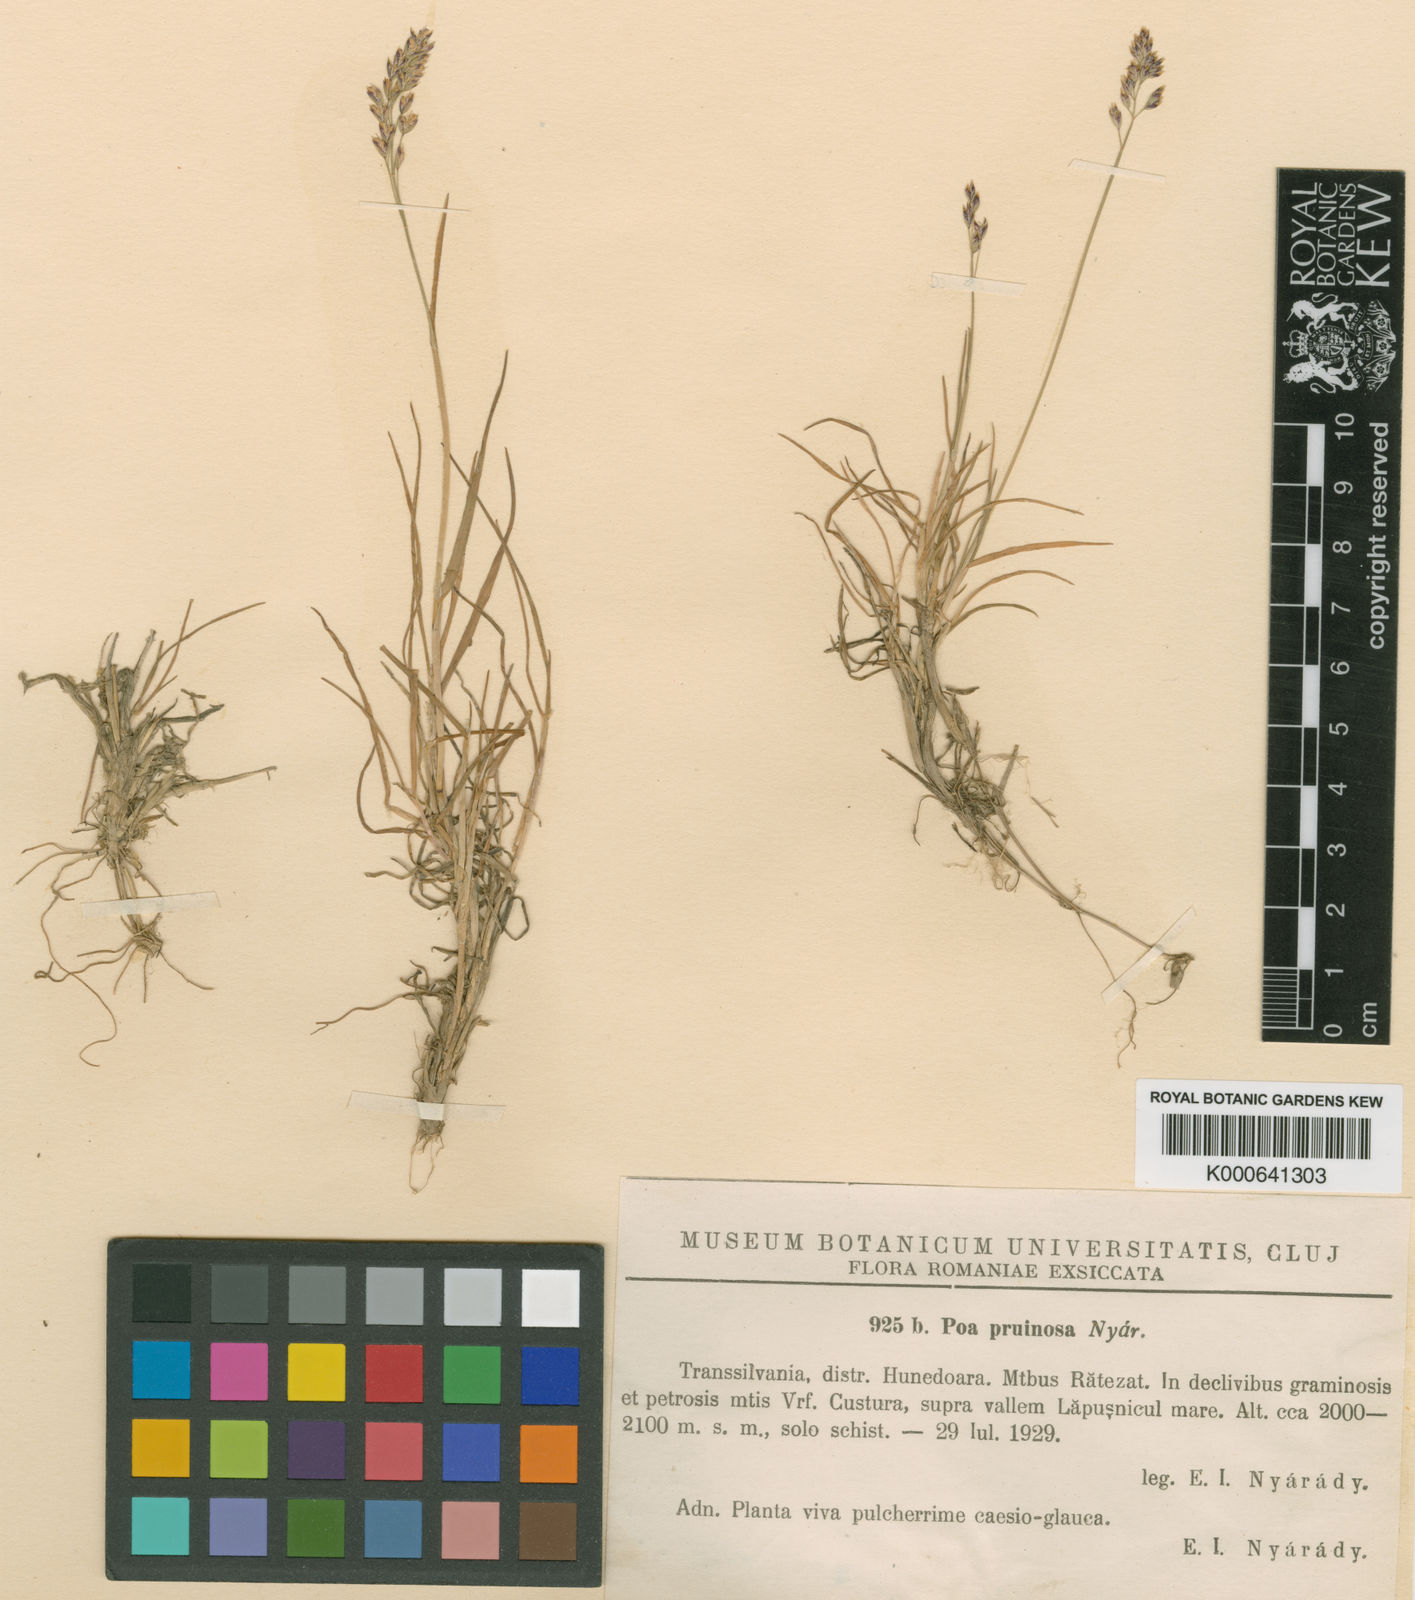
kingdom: Plantae
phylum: Tracheophyta
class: Liliopsida
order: Poales
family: Poaceae
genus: Poa
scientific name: Poa
